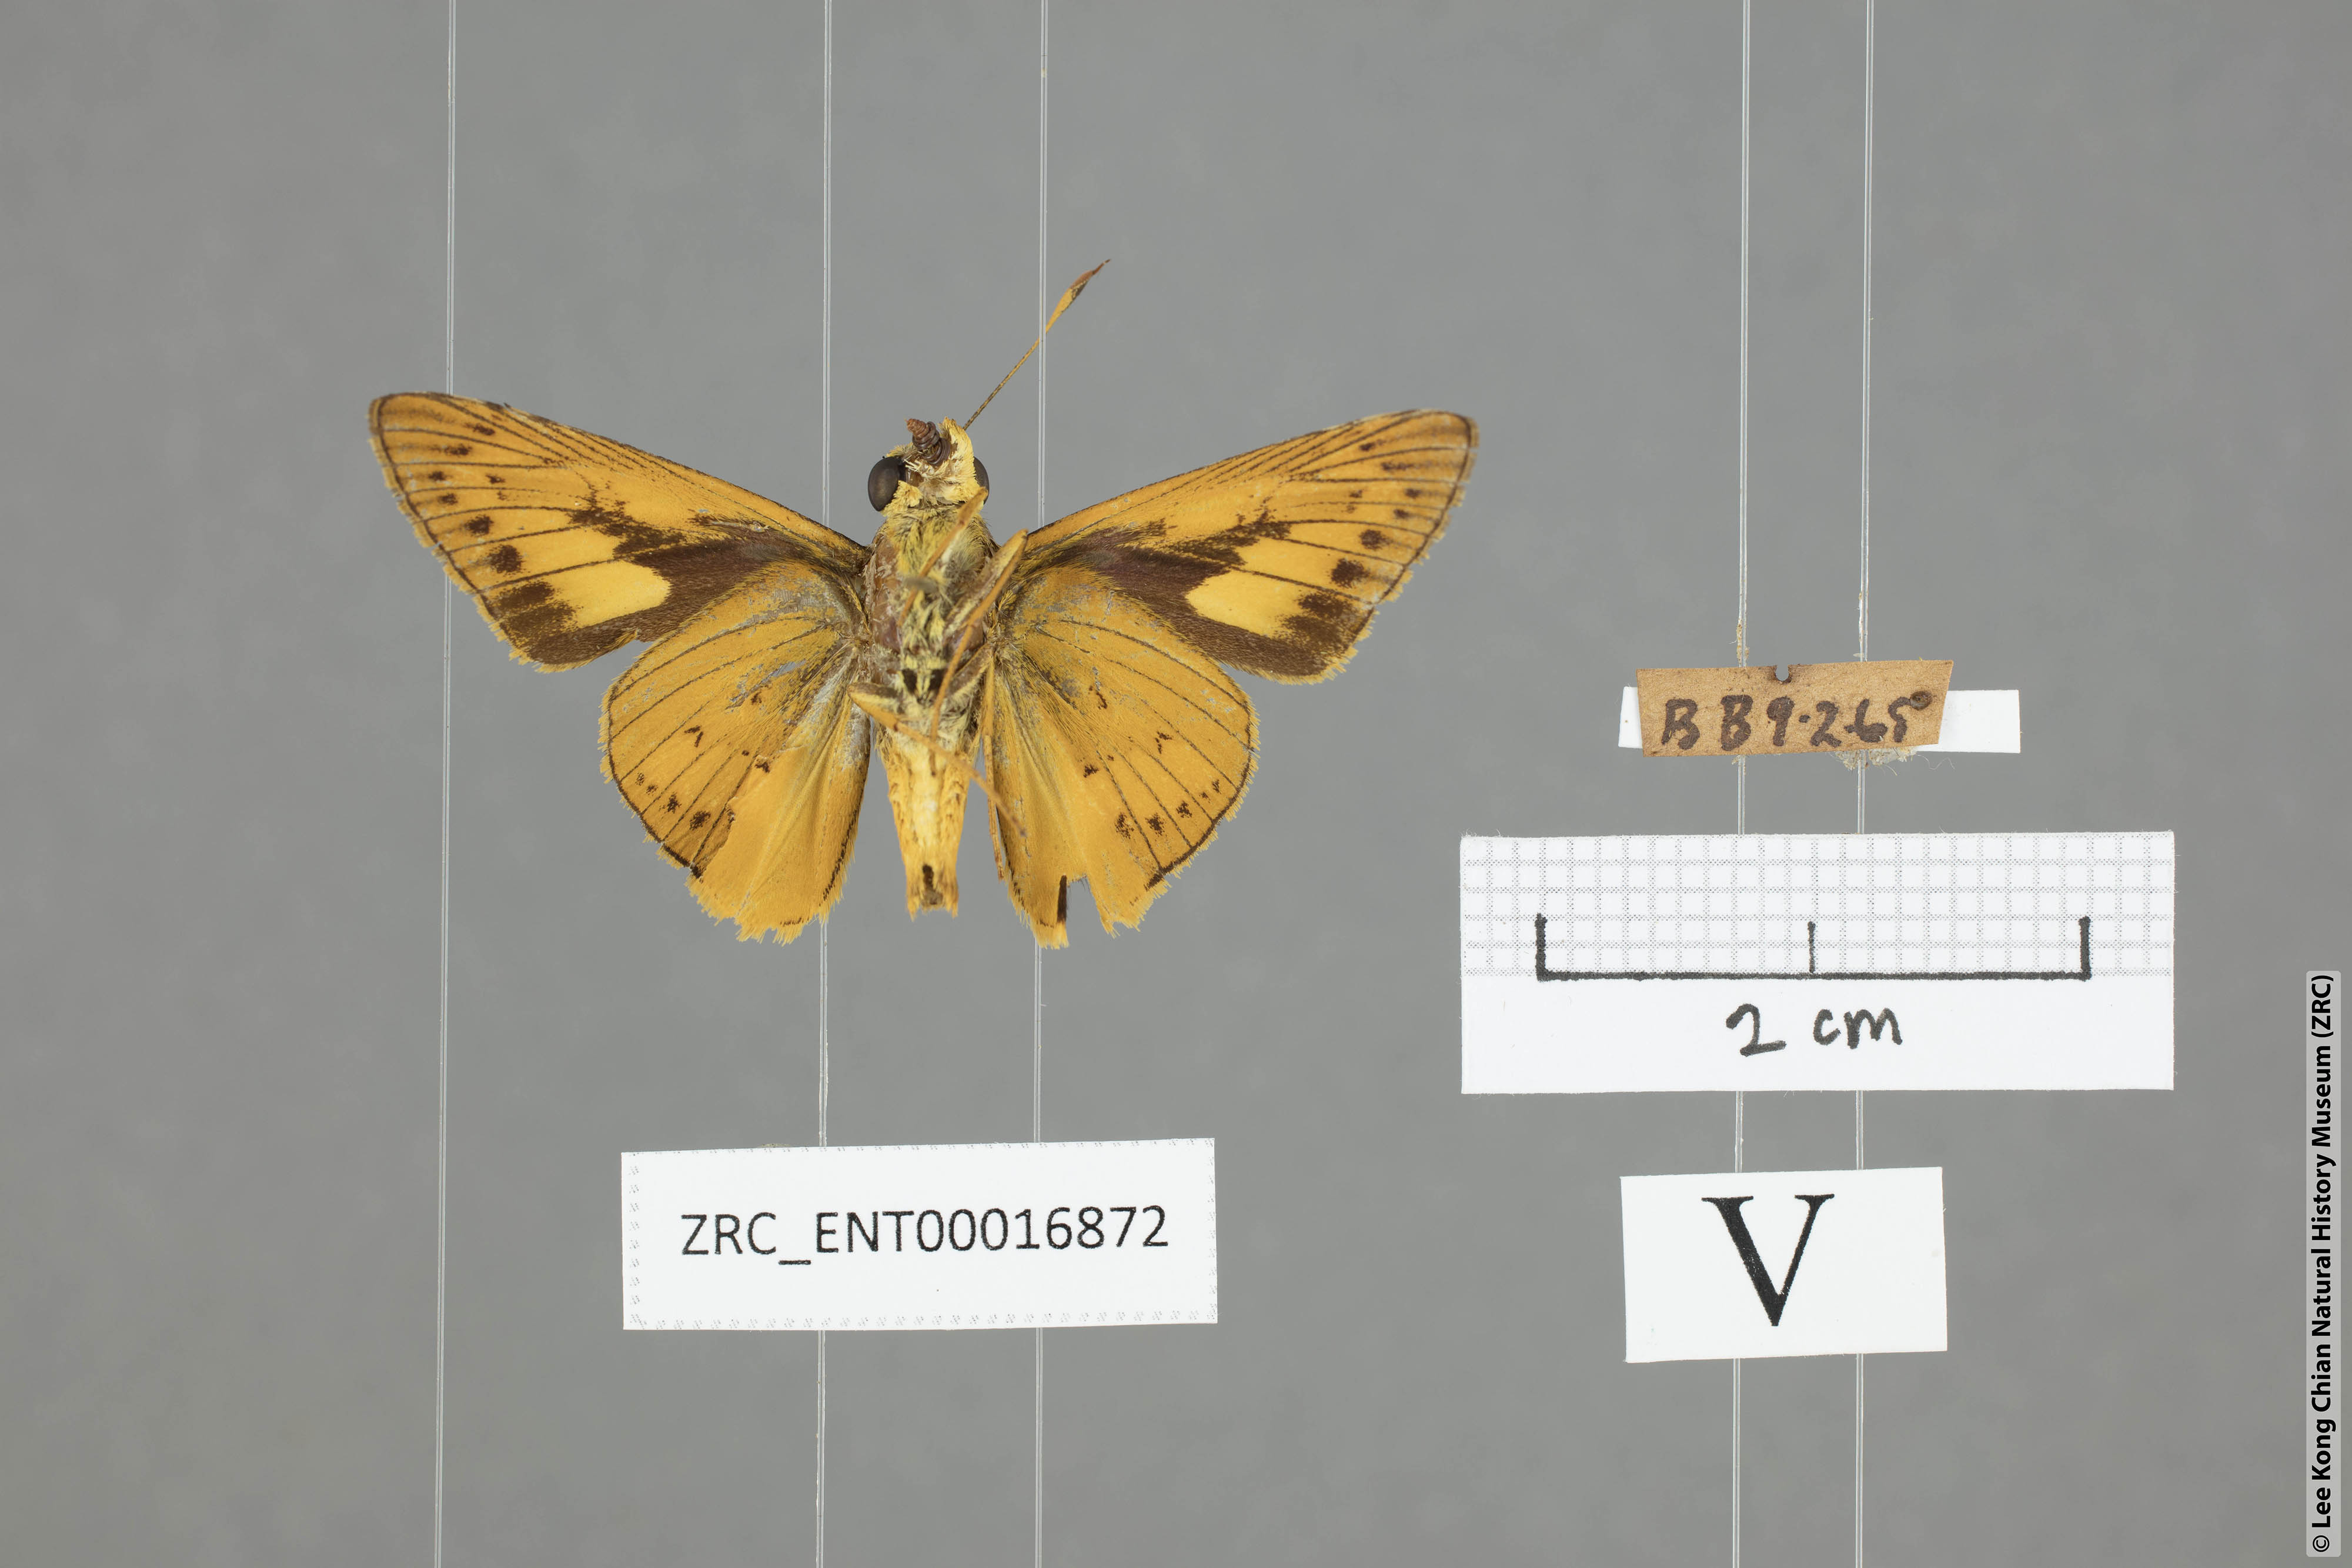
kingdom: Animalia
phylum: Arthropoda
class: Insecta
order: Lepidoptera
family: Hesperiidae
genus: Cephrenes
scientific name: Cephrenes
